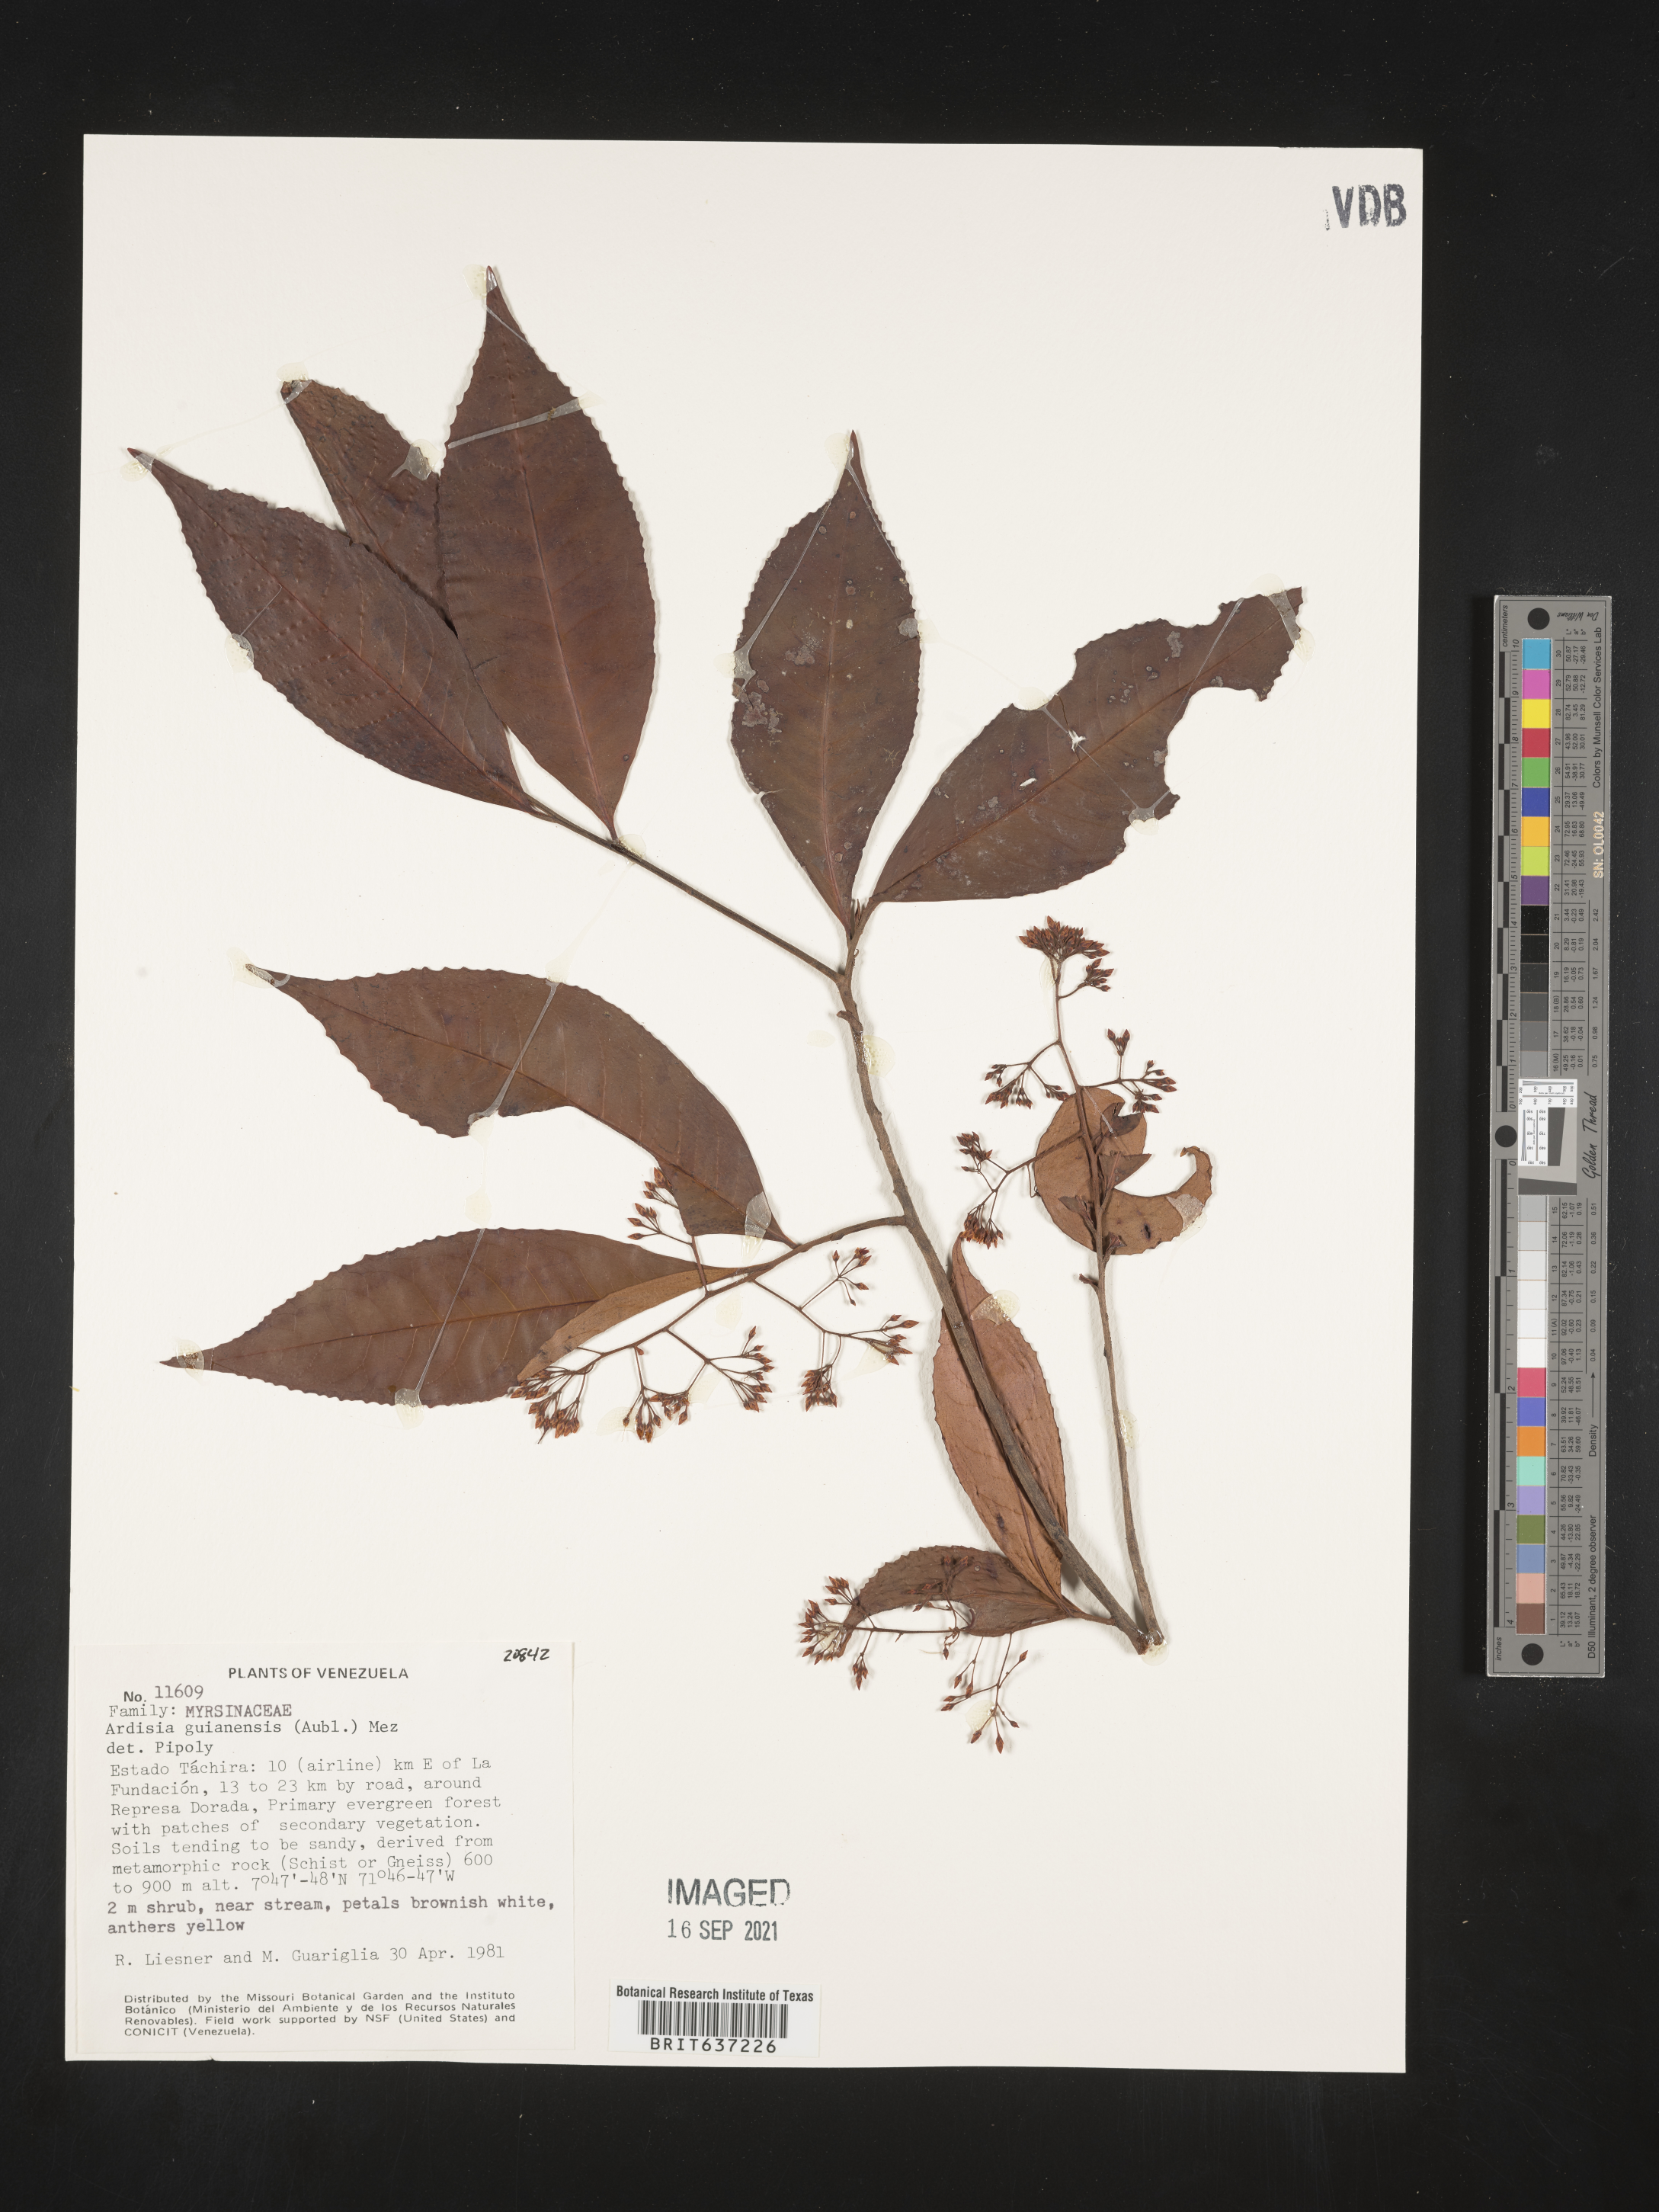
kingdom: Plantae
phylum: Tracheophyta
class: Magnoliopsida
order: Ericales
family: Primulaceae
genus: Ardisia
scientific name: Ardisia
